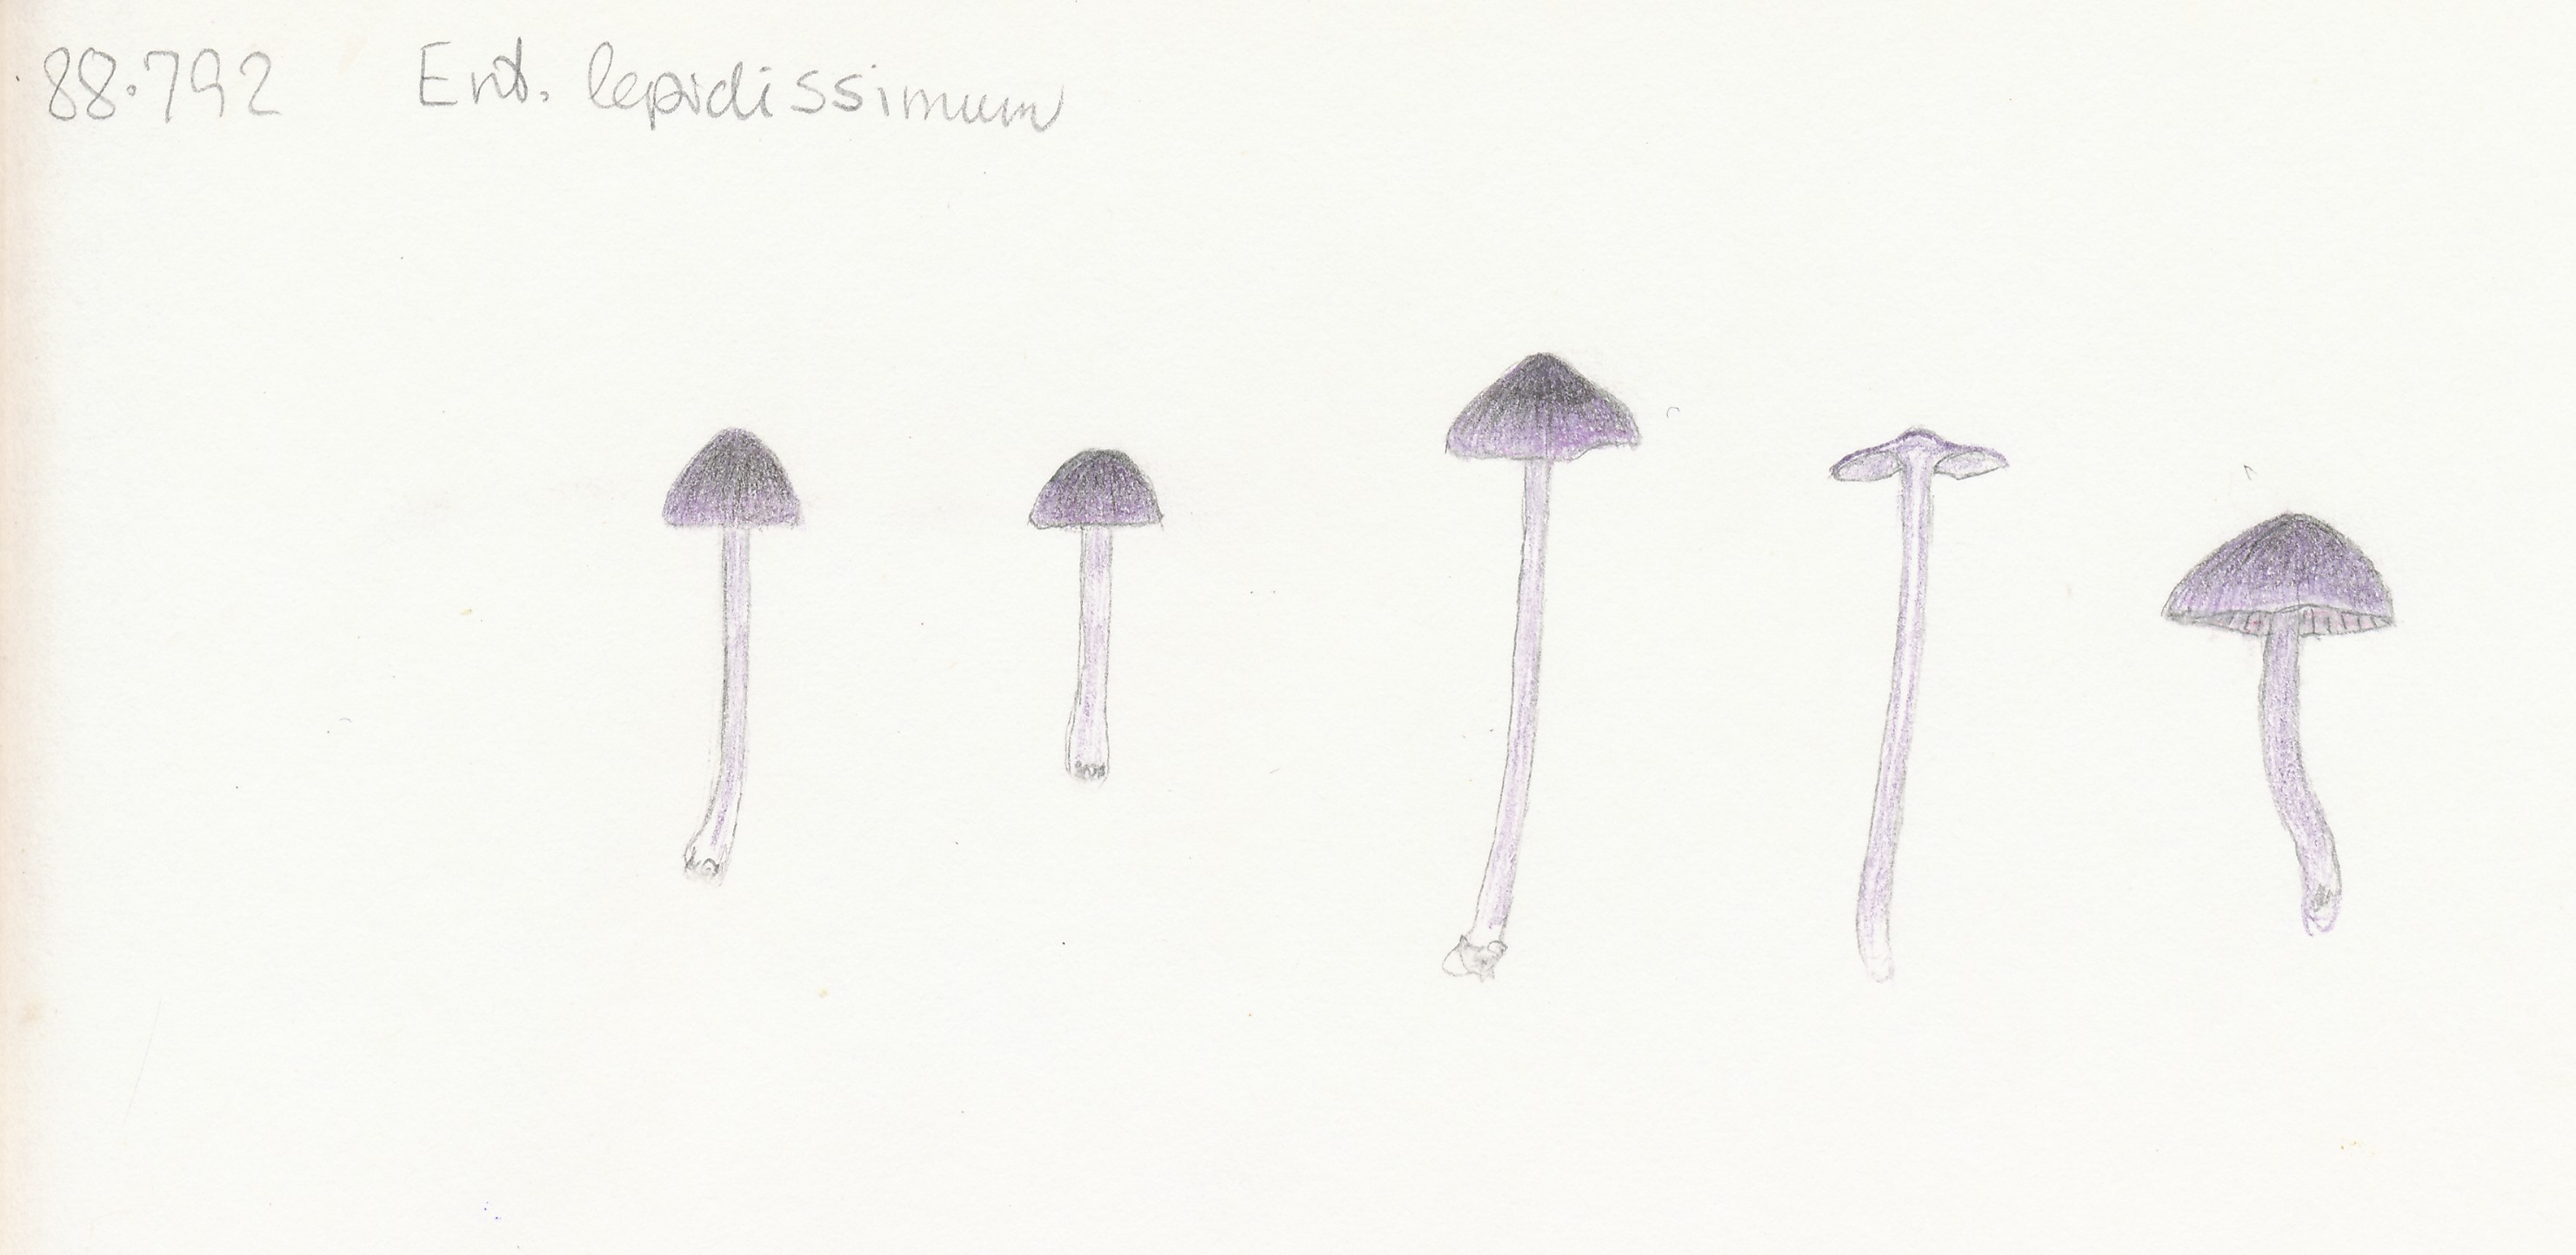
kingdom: Fungi
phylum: Basidiomycota
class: Agaricomycetes
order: Agaricales
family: Entolomataceae
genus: Entoloma
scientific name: Entoloma lepidissimum
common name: sart rødblad
